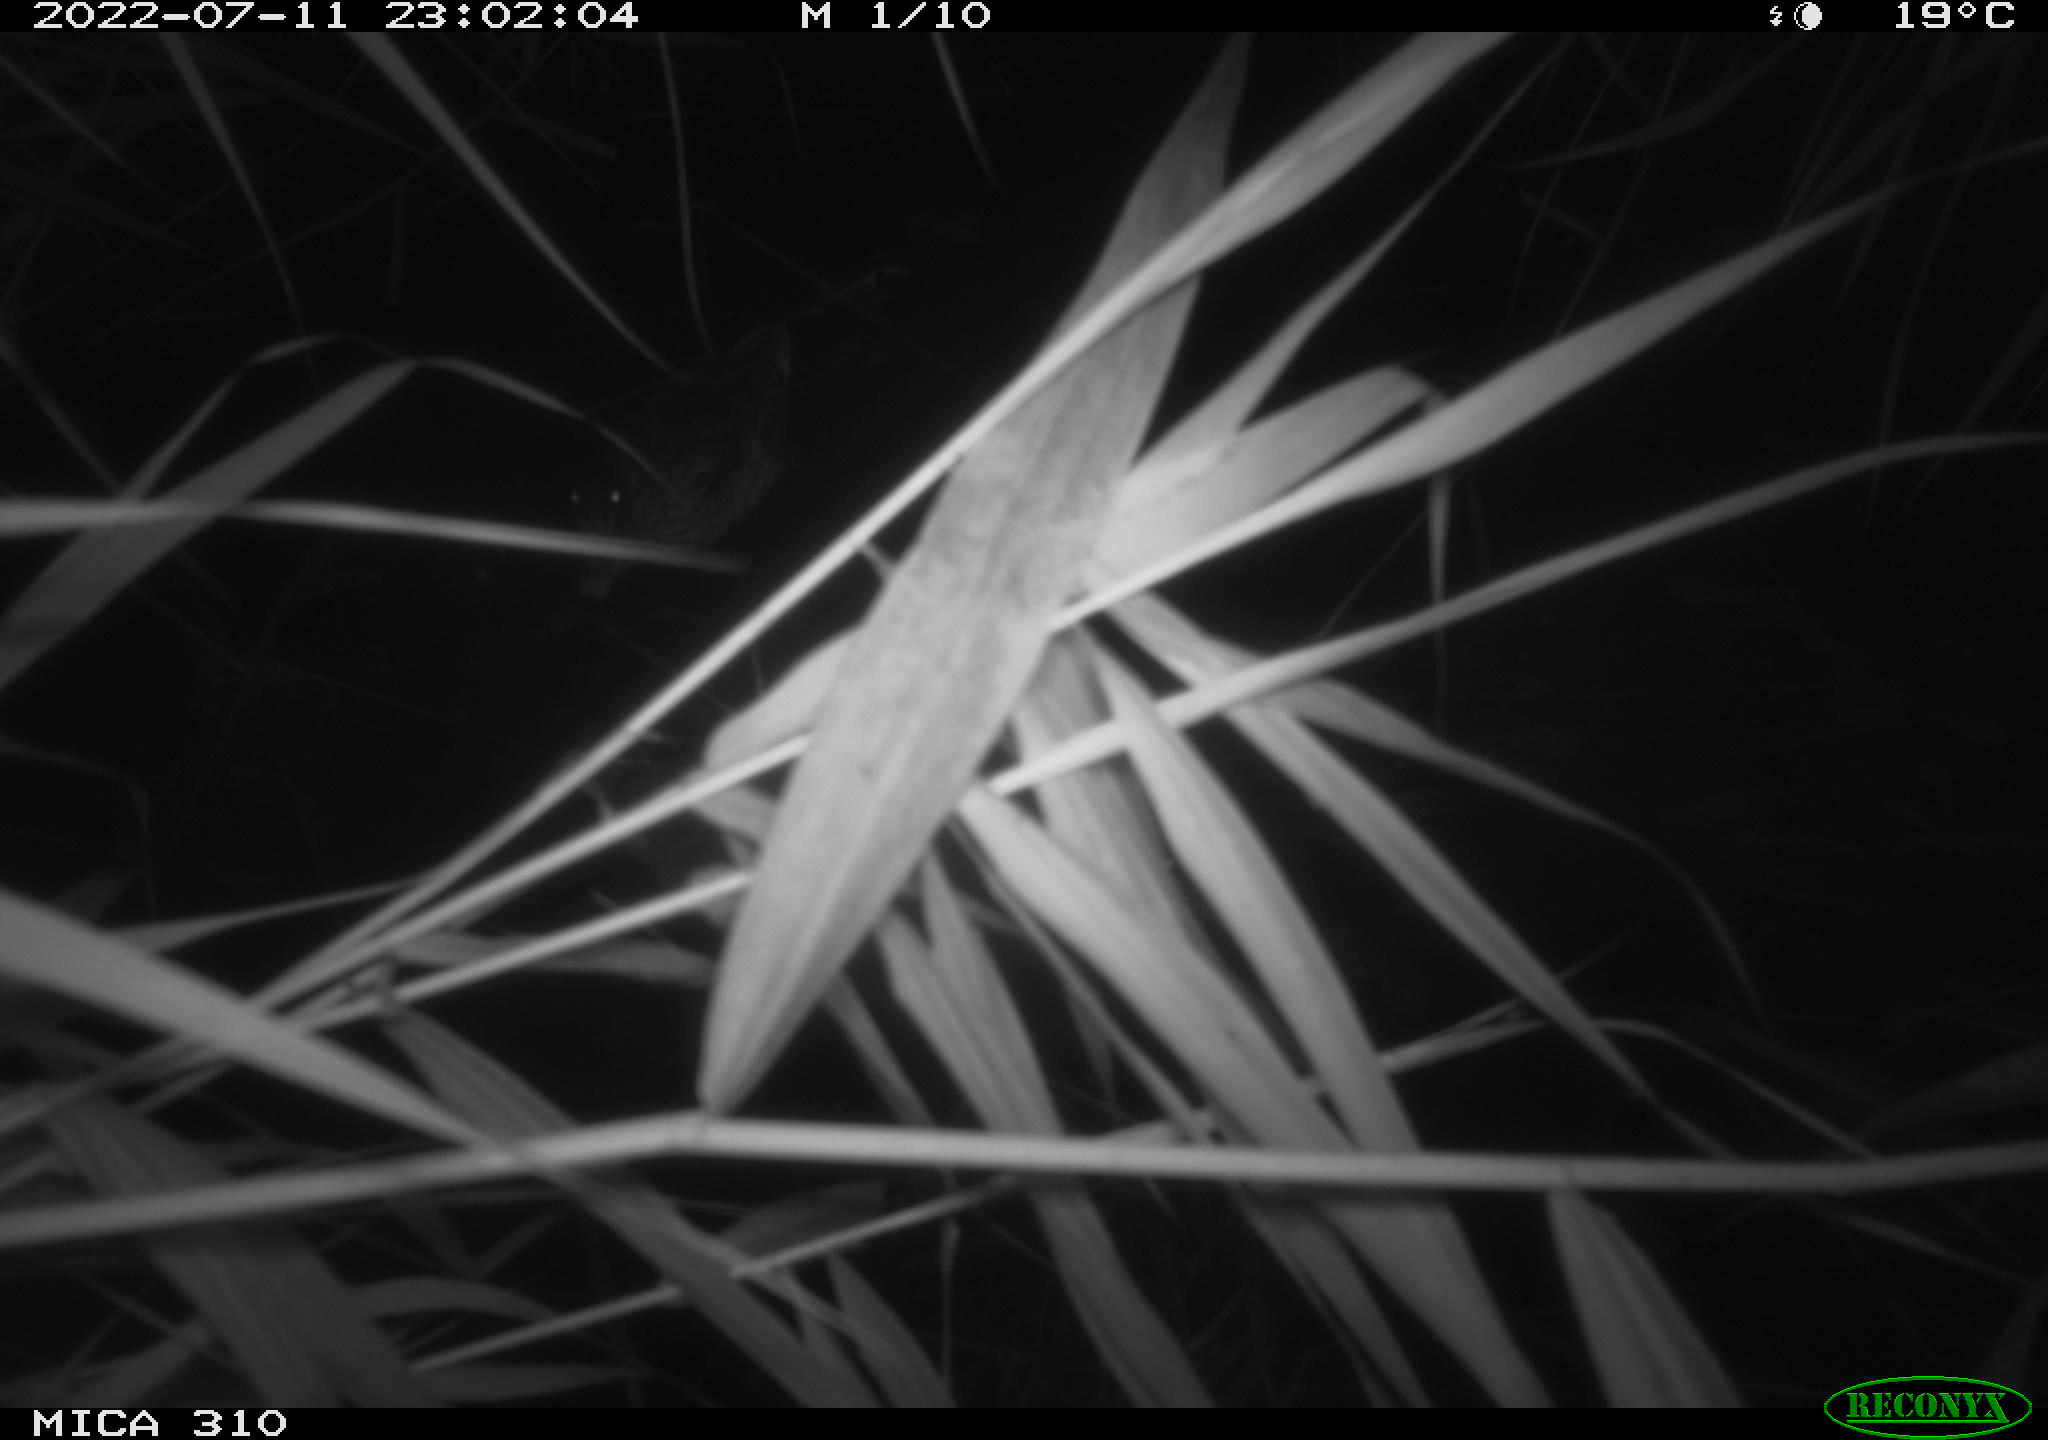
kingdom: Animalia
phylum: Chordata
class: Aves
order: Anseriformes
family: Anatidae
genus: Anas
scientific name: Anas platyrhynchos
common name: Mallard
